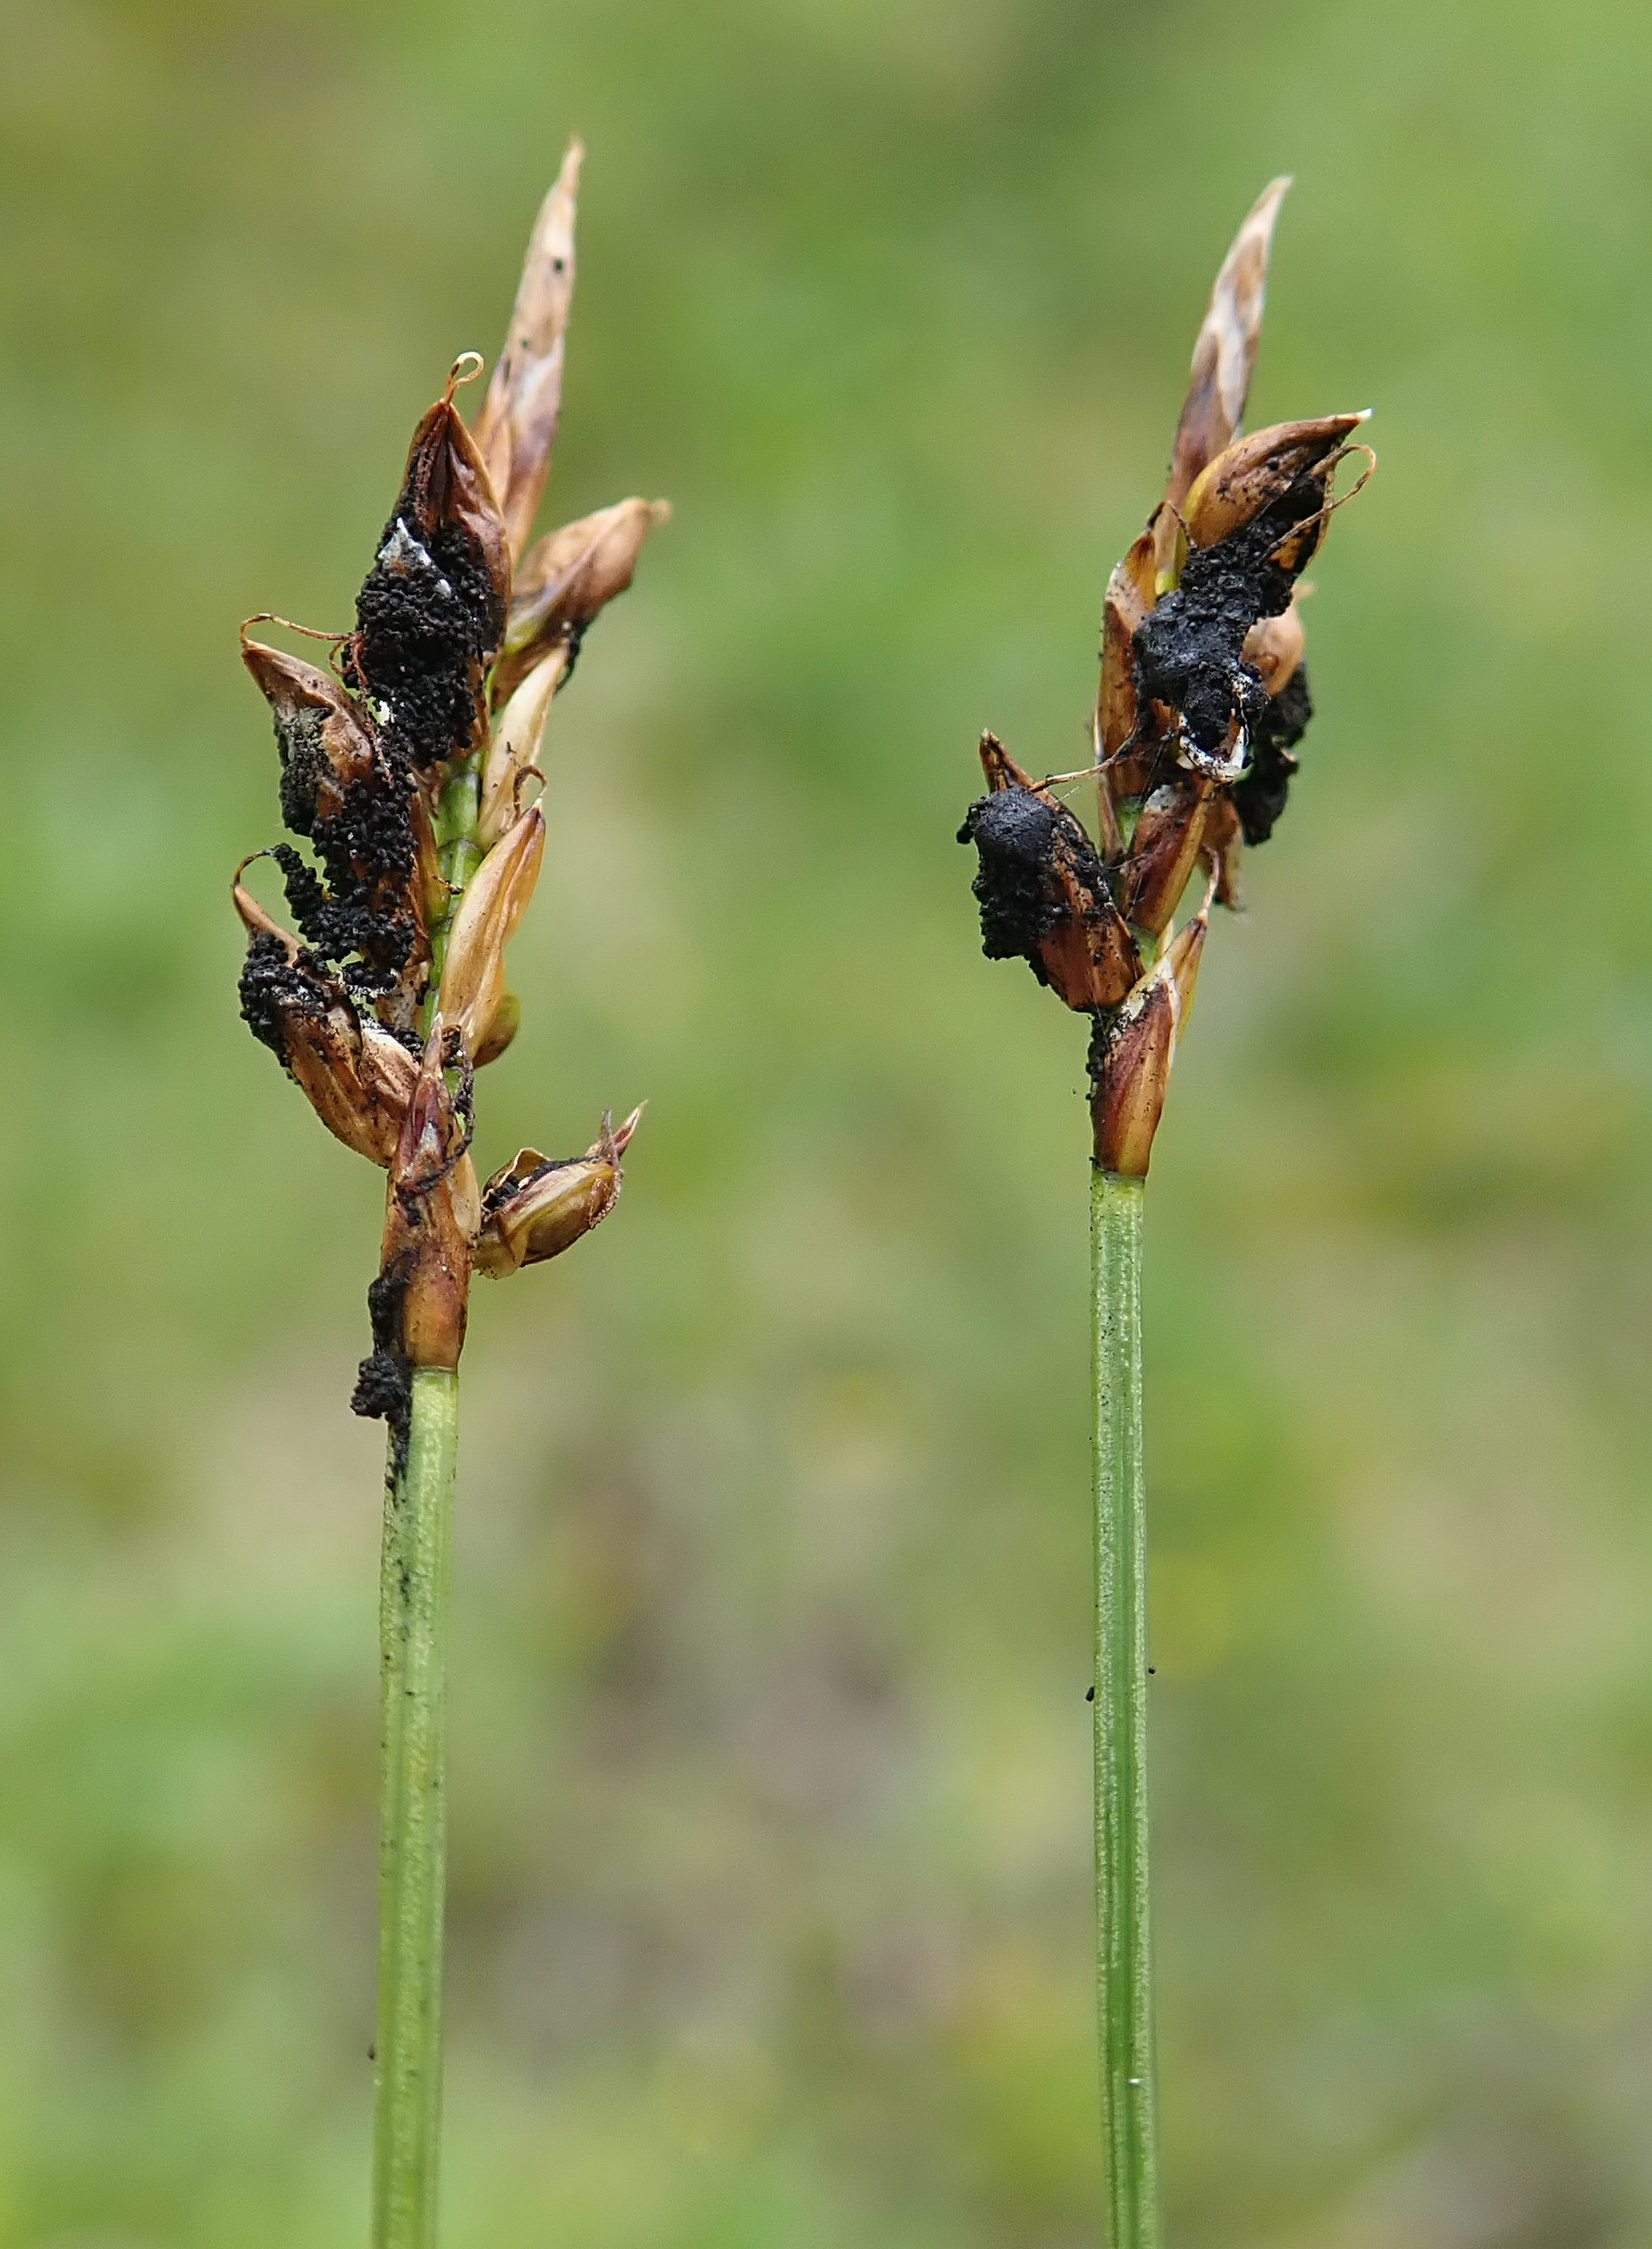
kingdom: Fungi
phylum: Basidiomycota
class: Ustilaginomycetes
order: Ustilaginales
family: Anthracoideaceae
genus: Anthracoidea
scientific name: Anthracoidea pulicaris
